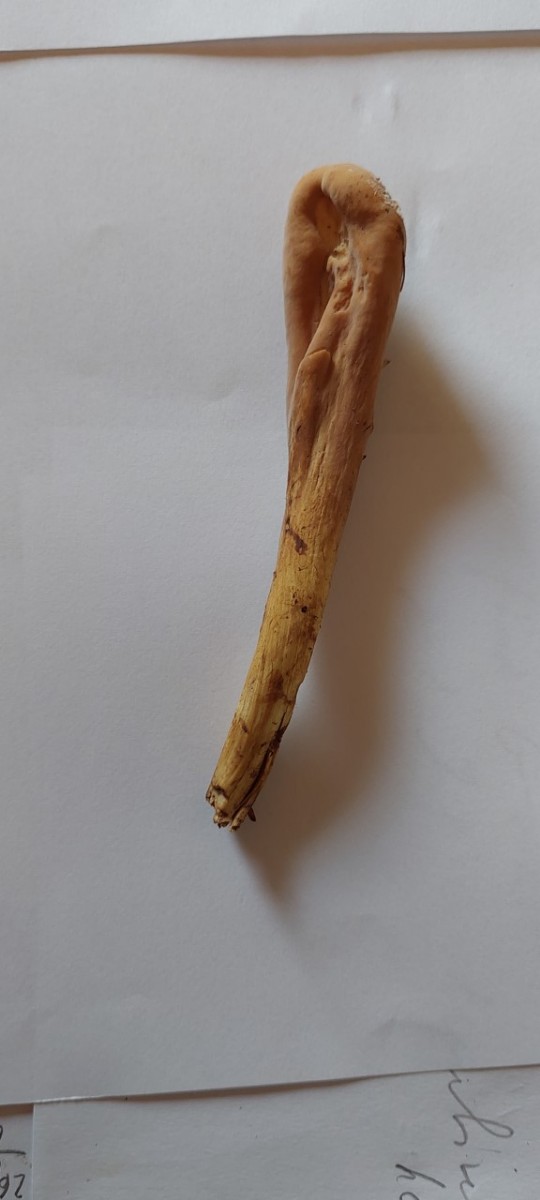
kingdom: Fungi
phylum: Basidiomycota
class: Agaricomycetes
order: Gomphales
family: Clavariadelphaceae
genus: Clavariadelphus
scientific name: Clavariadelphus pistillaris
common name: herkules-kæmpekølle
